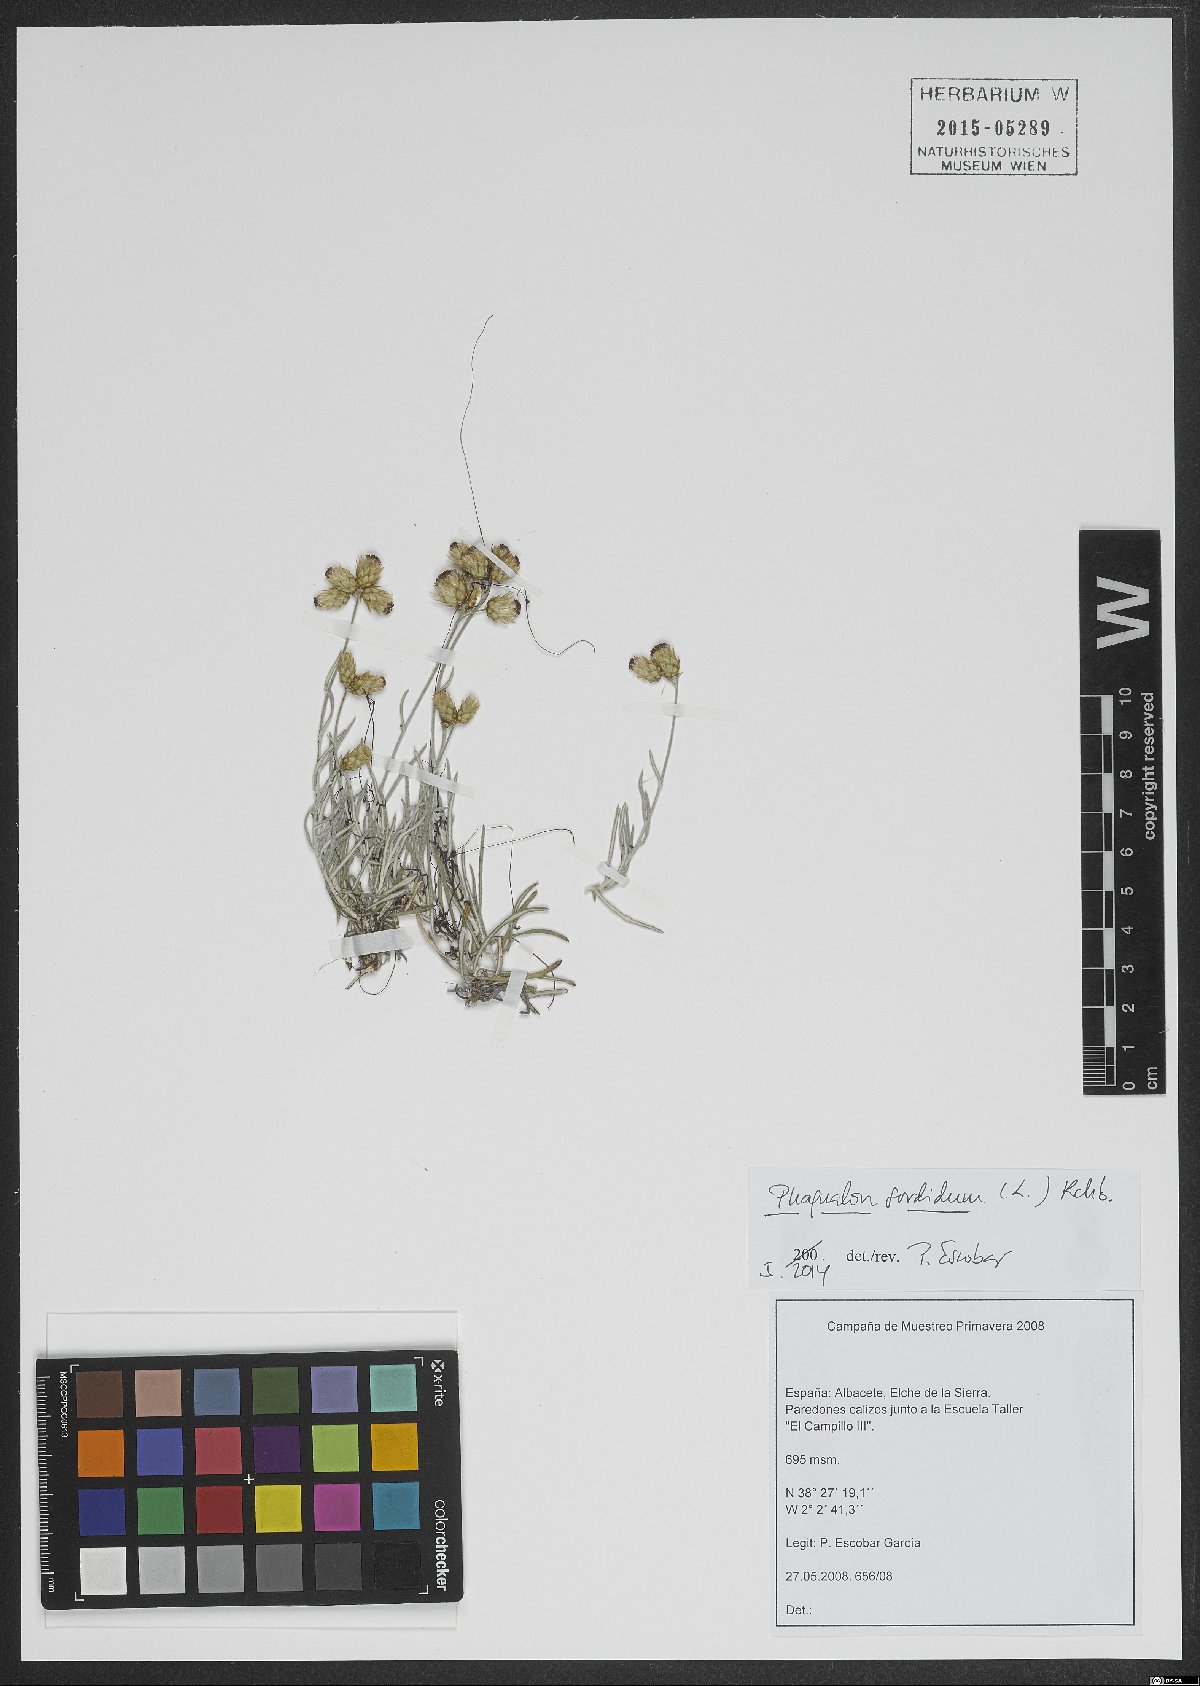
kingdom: Plantae
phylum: Tracheophyta
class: Magnoliopsida
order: Asterales
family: Asteraceae
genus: Phagnalon
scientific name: Phagnalon sordidum
